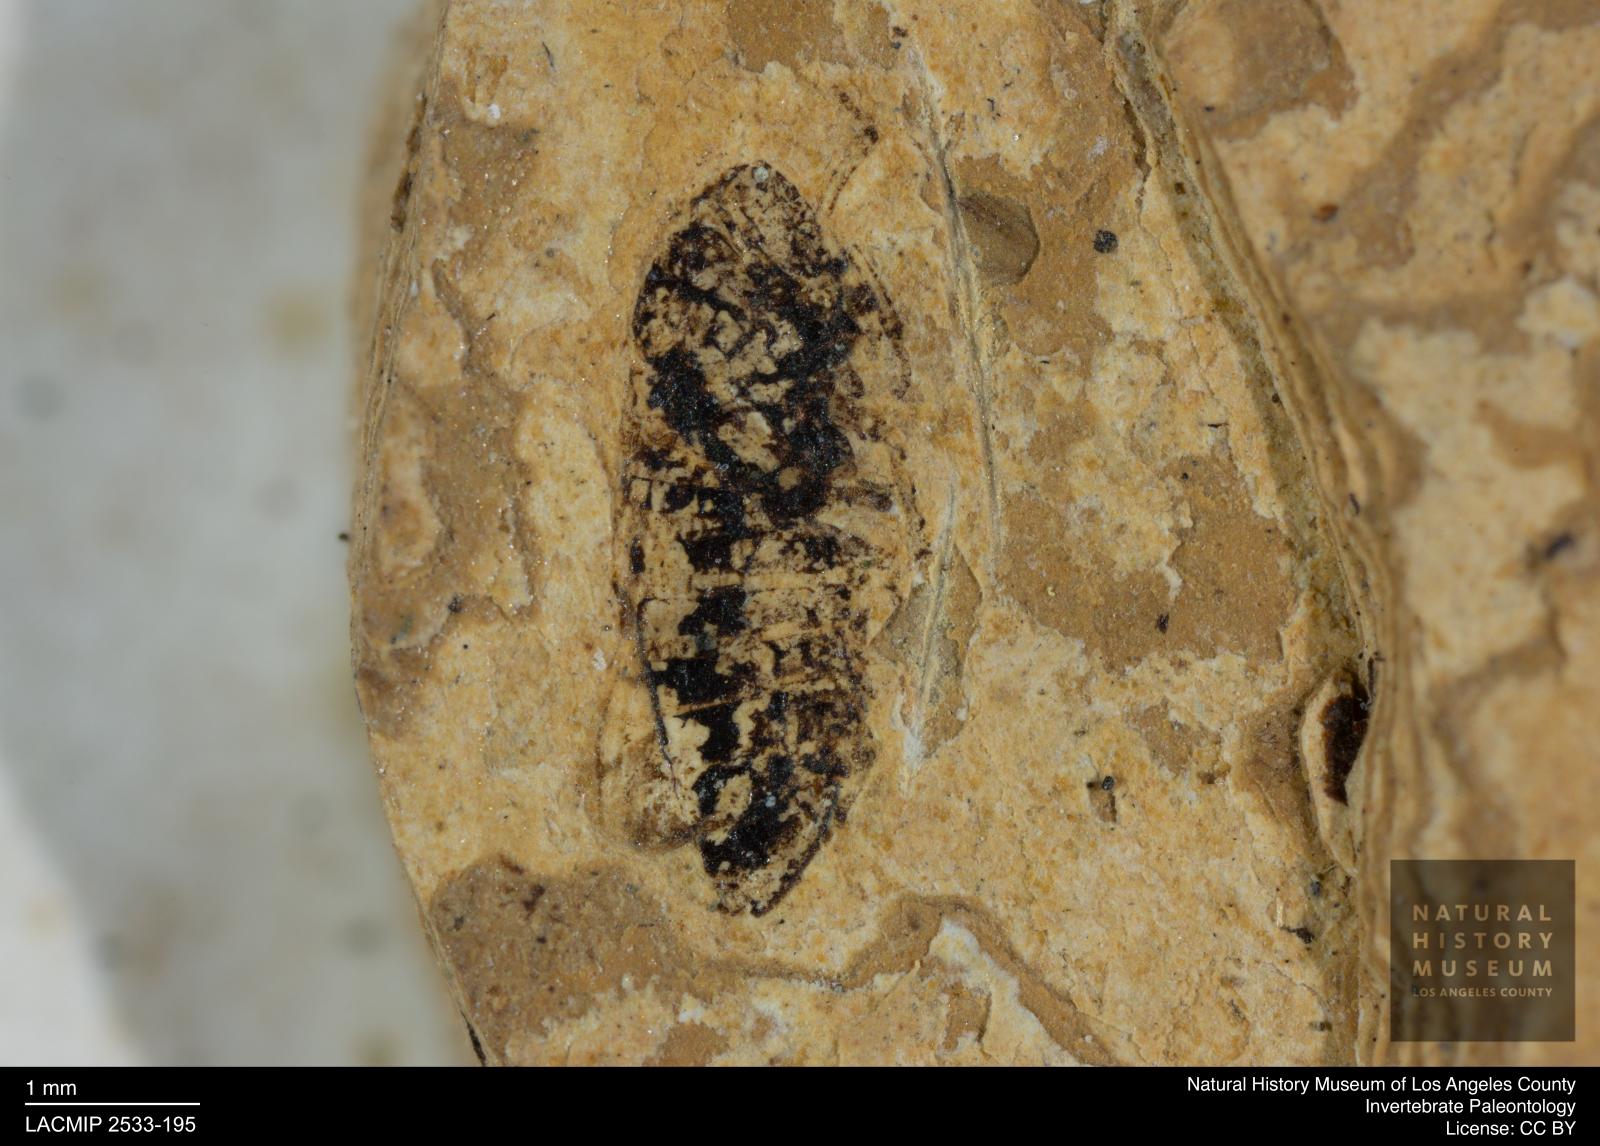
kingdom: Animalia
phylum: Arthropoda
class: Insecta
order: Hemiptera
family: Cicadellidae
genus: Thamnotettix
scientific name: Thamnotettix gracilentus
